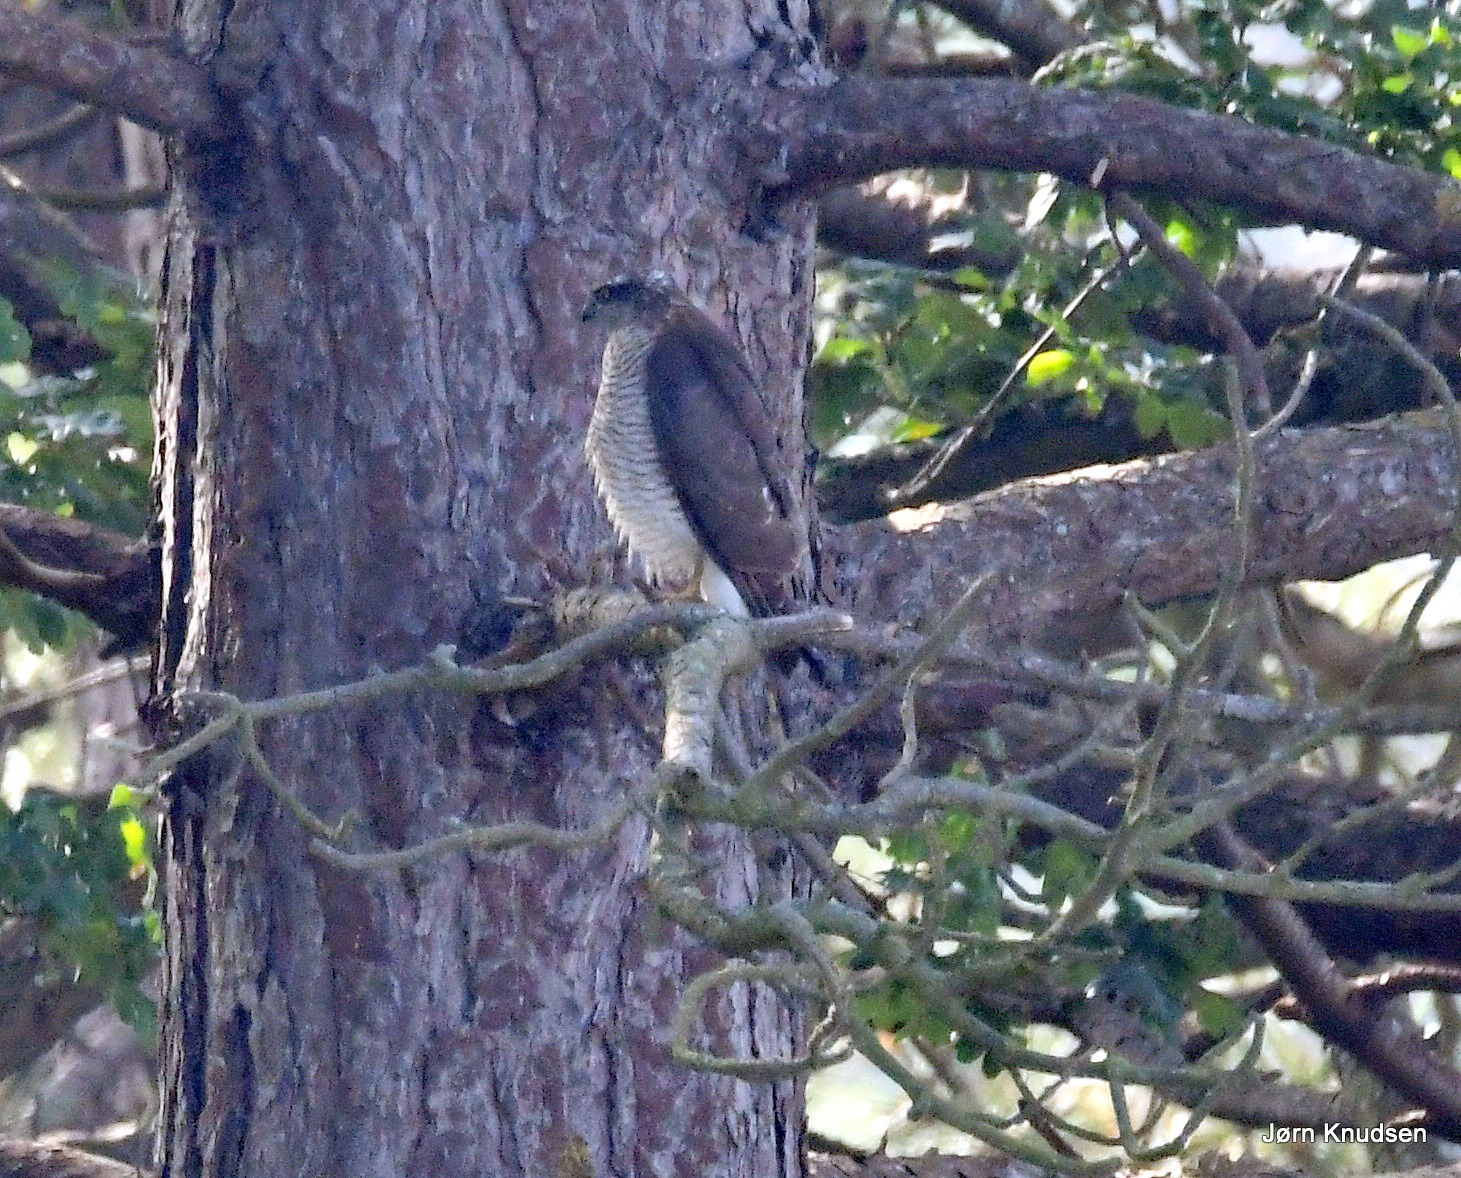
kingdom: Animalia
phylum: Chordata
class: Aves
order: Accipitriformes
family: Accipitridae
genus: Accipiter
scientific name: Accipiter nisus
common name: Spurvehøg
